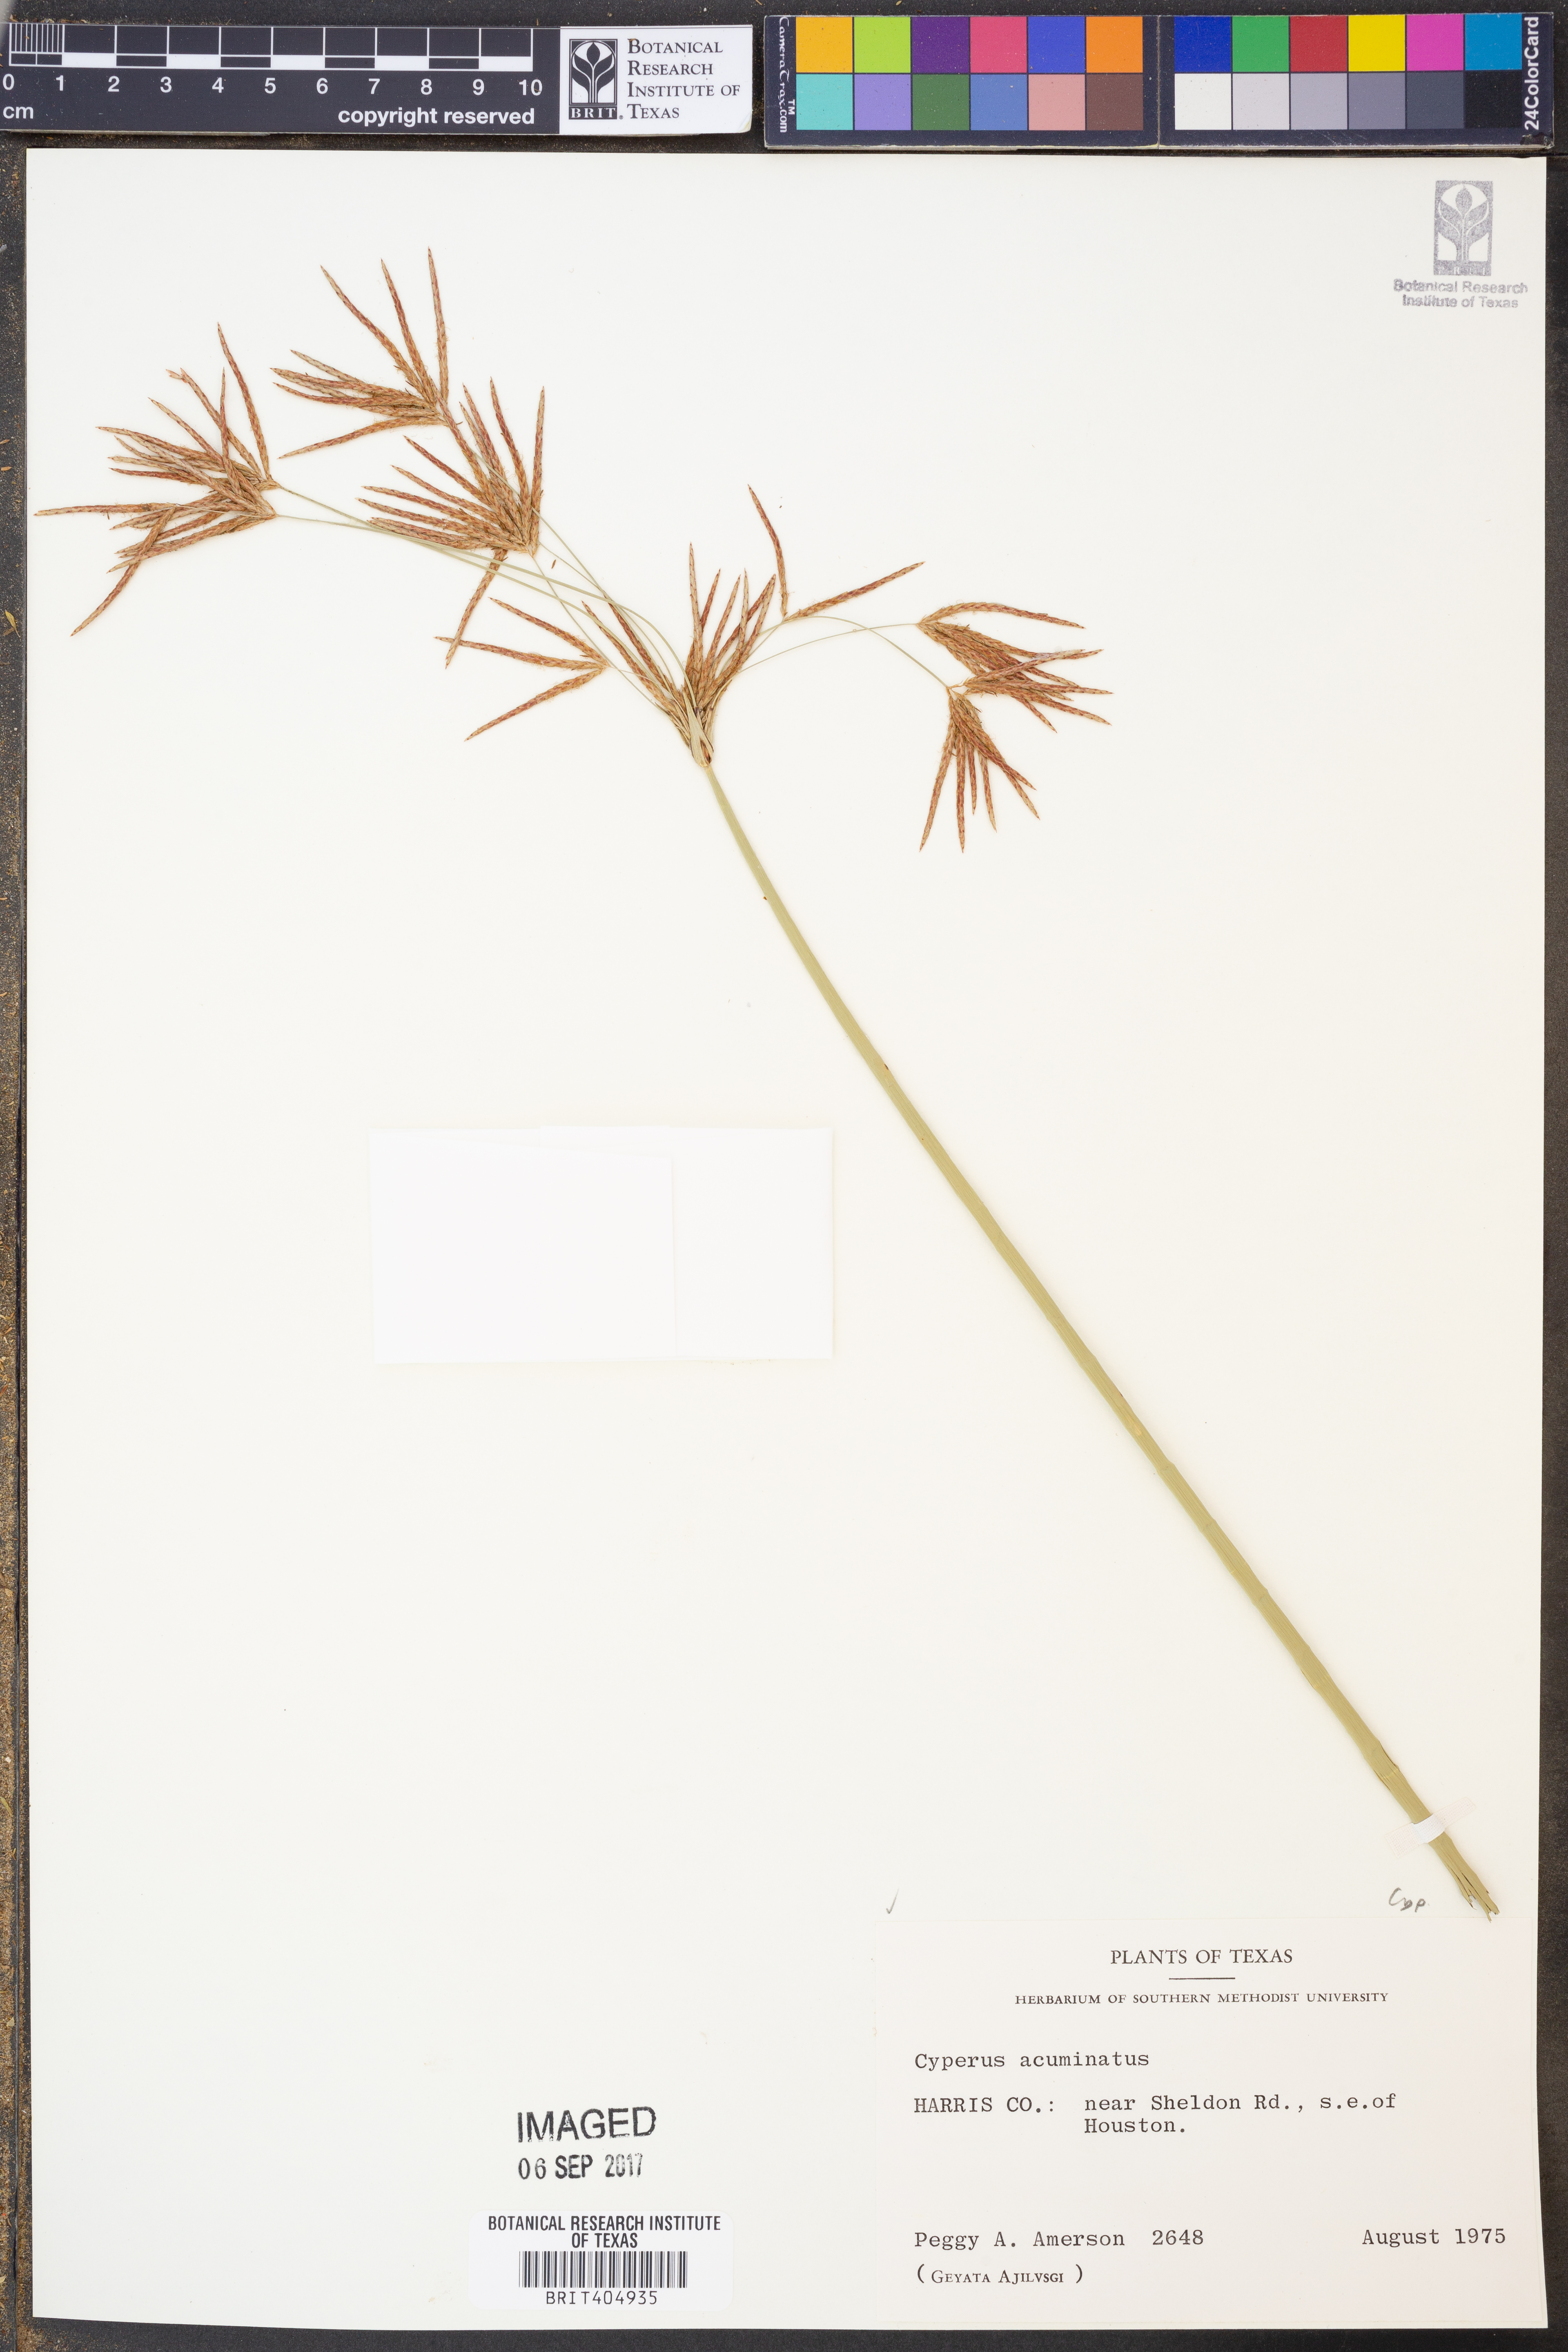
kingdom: Plantae
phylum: Tracheophyta
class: Liliopsida
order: Poales
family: Cyperaceae
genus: Cyperus
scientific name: Cyperus acuminatus
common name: Short-pointed cyperus
